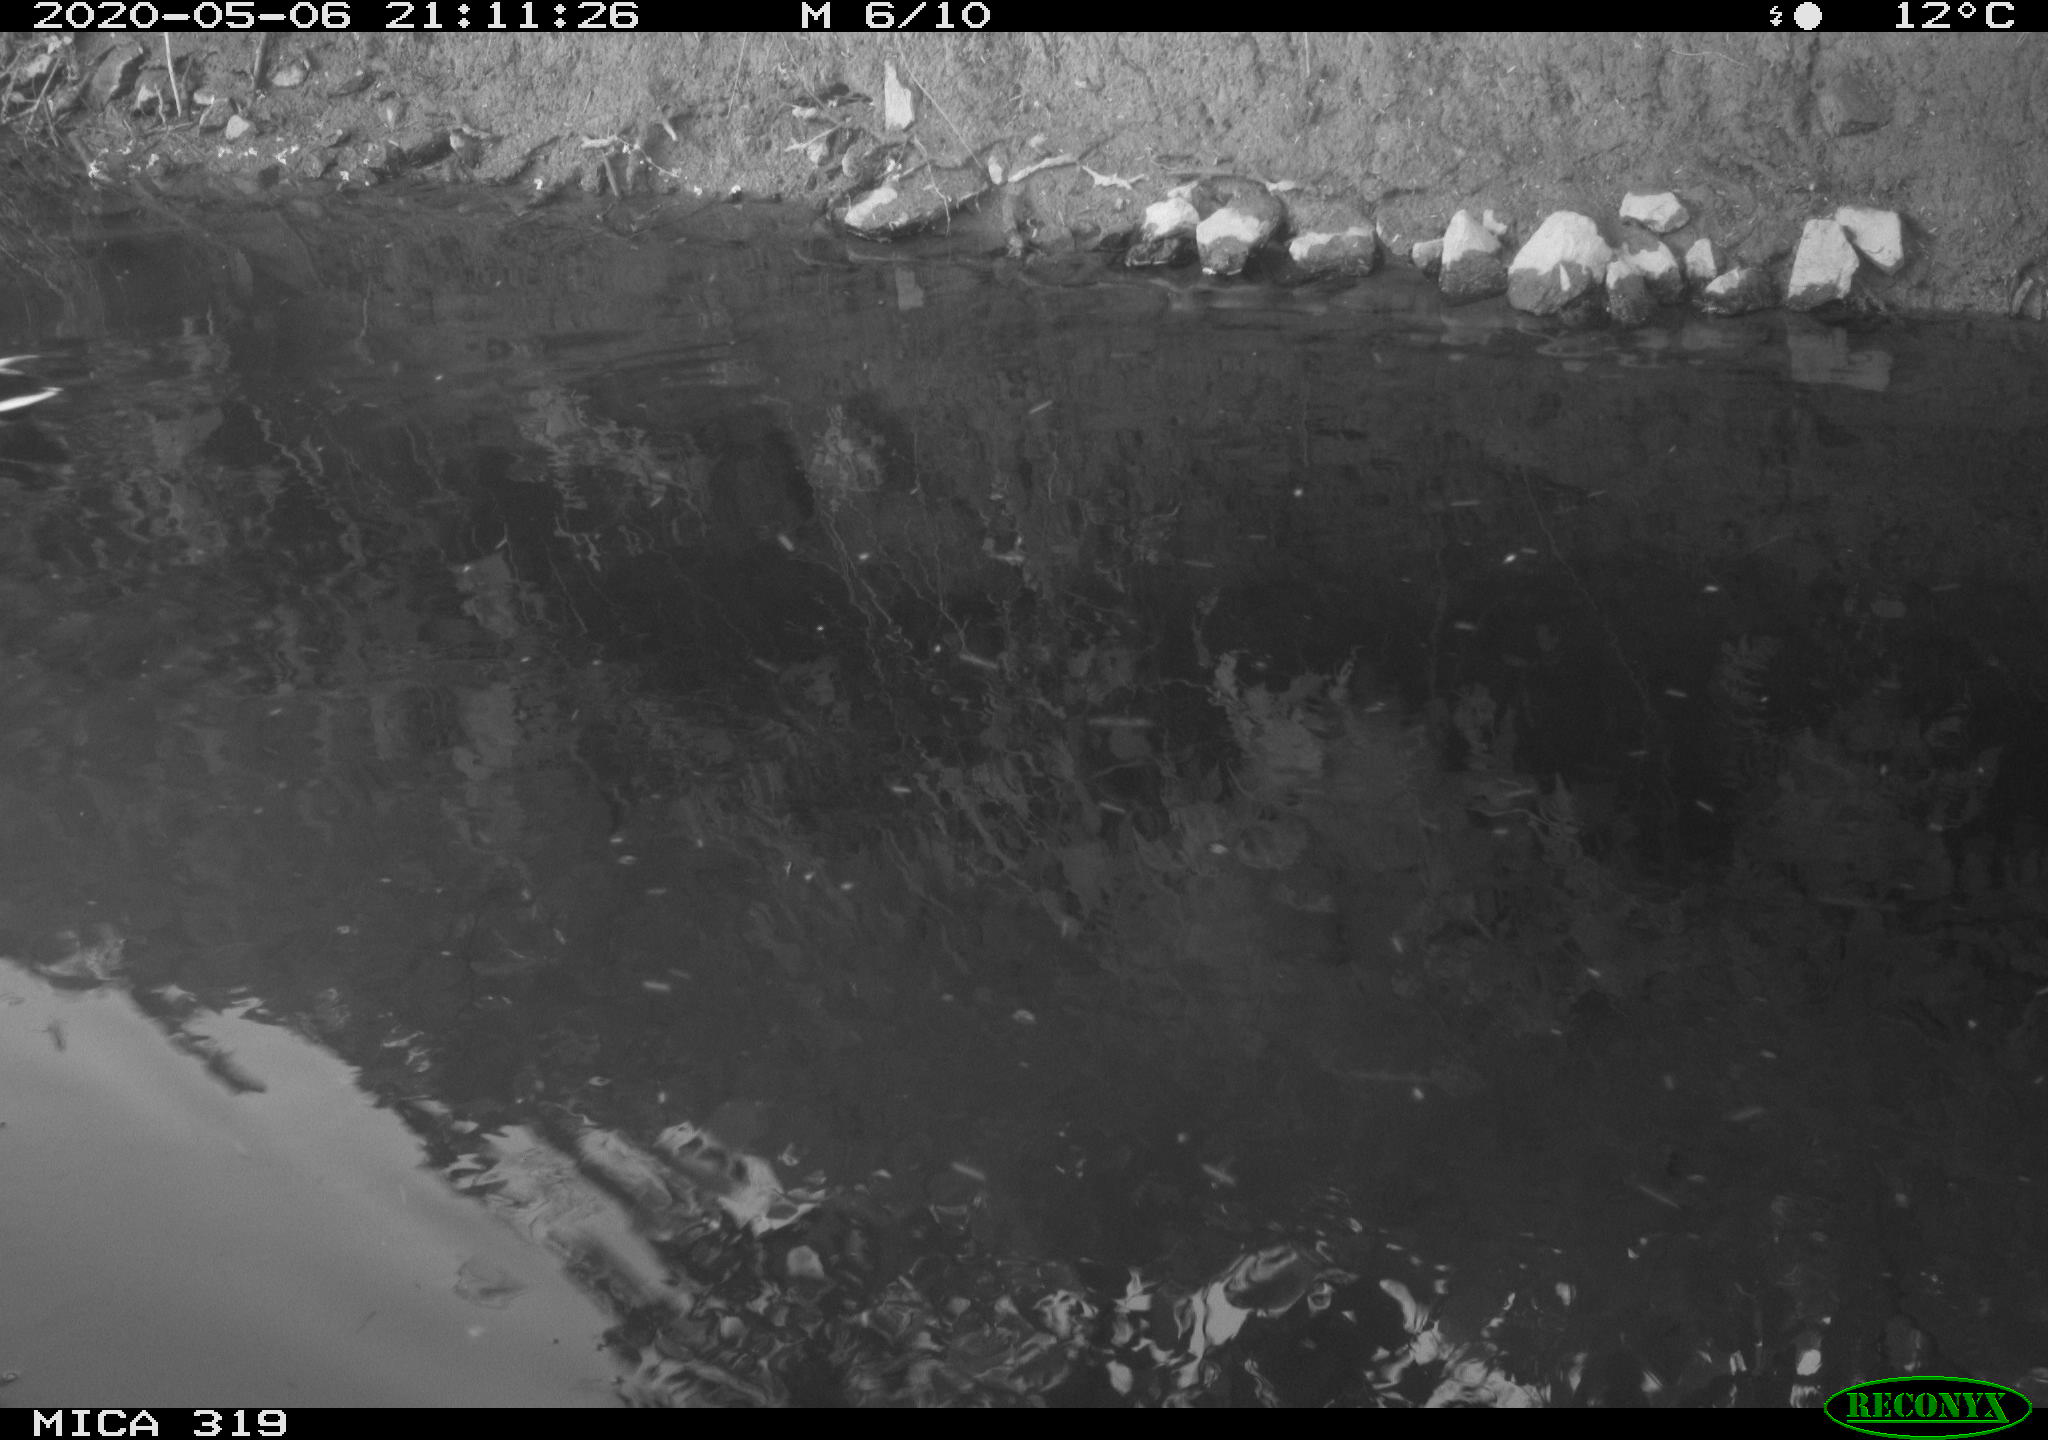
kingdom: Animalia
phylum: Chordata
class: Aves
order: Anseriformes
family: Anatidae
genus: Anas
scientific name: Anas platyrhynchos
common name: Mallard
